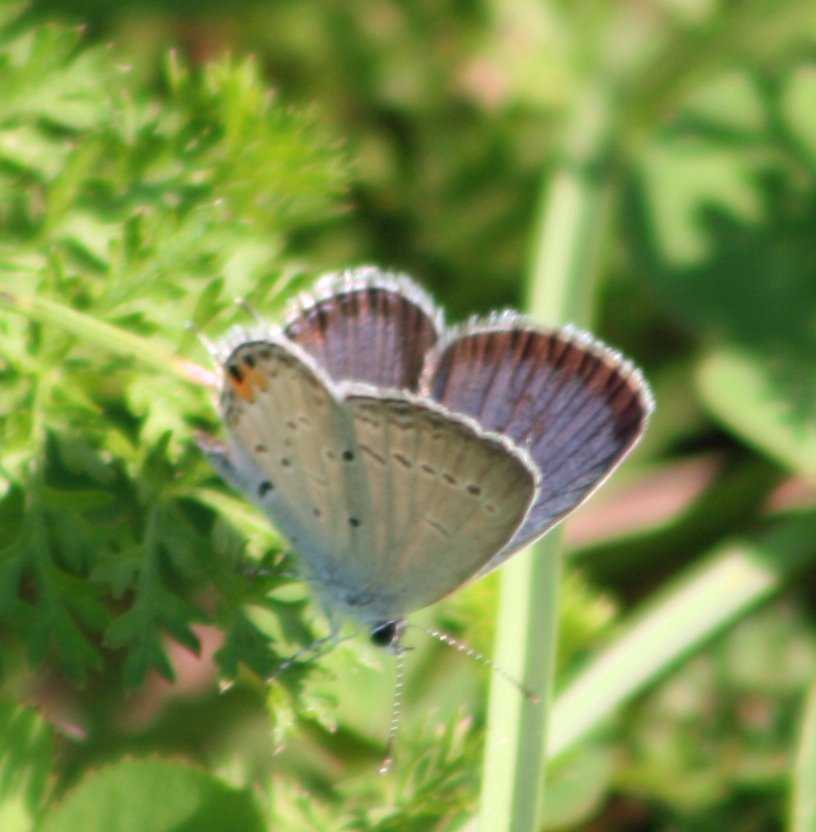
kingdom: Animalia
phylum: Arthropoda
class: Insecta
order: Lepidoptera
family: Lycaenidae
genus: Elkalyce
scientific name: Elkalyce comyntas
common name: Eastern Tailed-Blue
